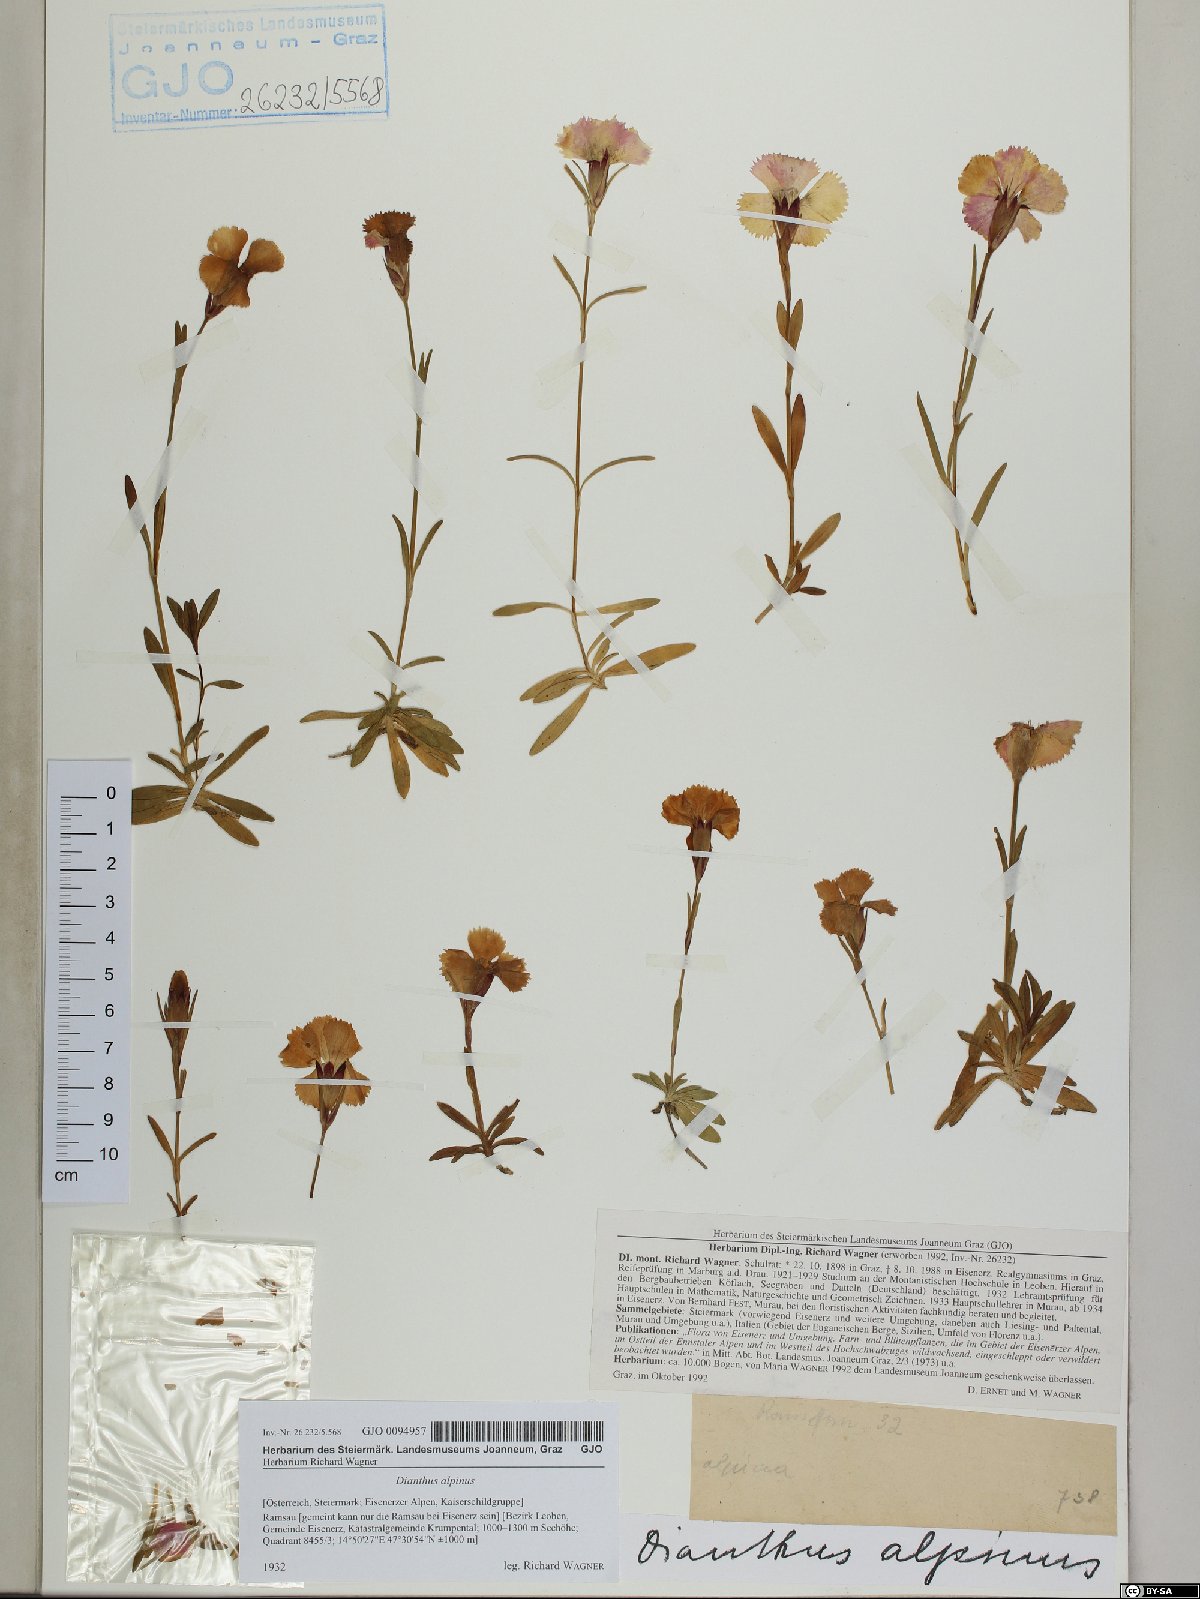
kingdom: Plantae
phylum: Tracheophyta
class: Magnoliopsida
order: Caryophyllales
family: Caryophyllaceae
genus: Dianthus
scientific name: Dianthus alpinus
